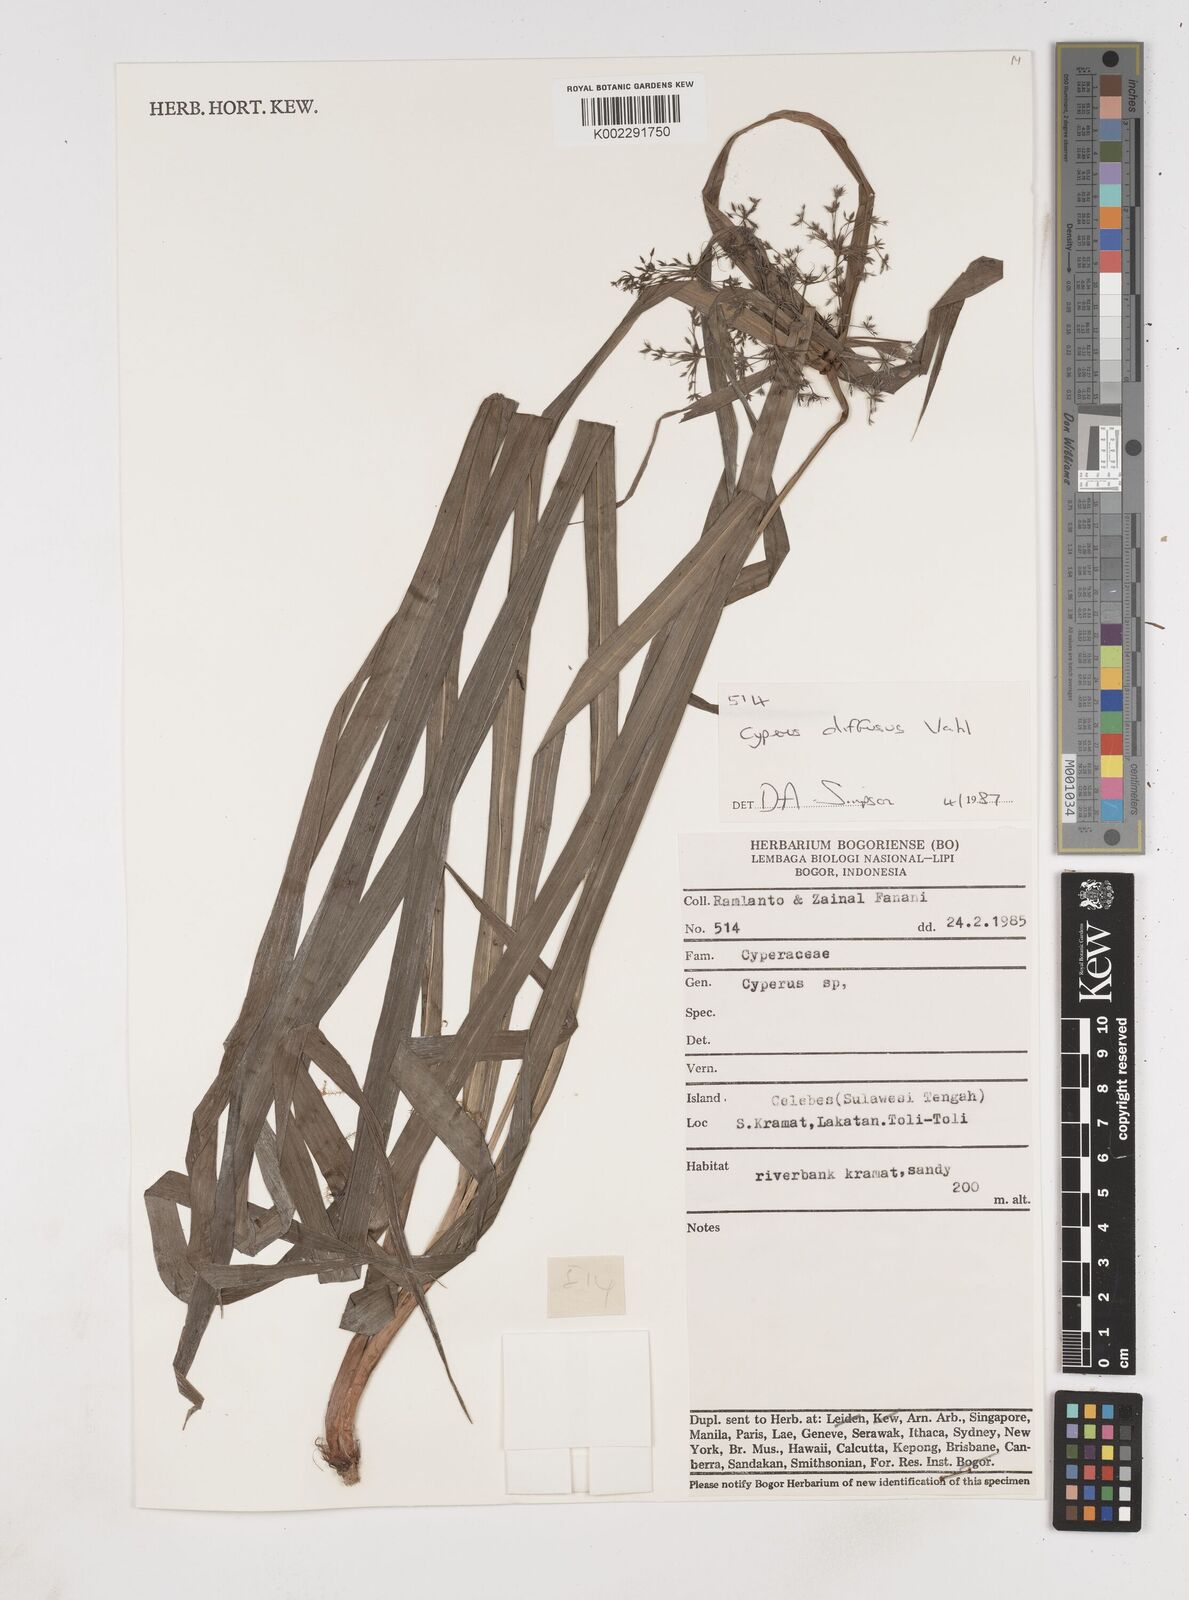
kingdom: Plantae
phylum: Tracheophyta
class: Liliopsida
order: Poales
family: Cyperaceae
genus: Cyperus
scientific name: Cyperus diffusus
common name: Dwarf umbrella grass
